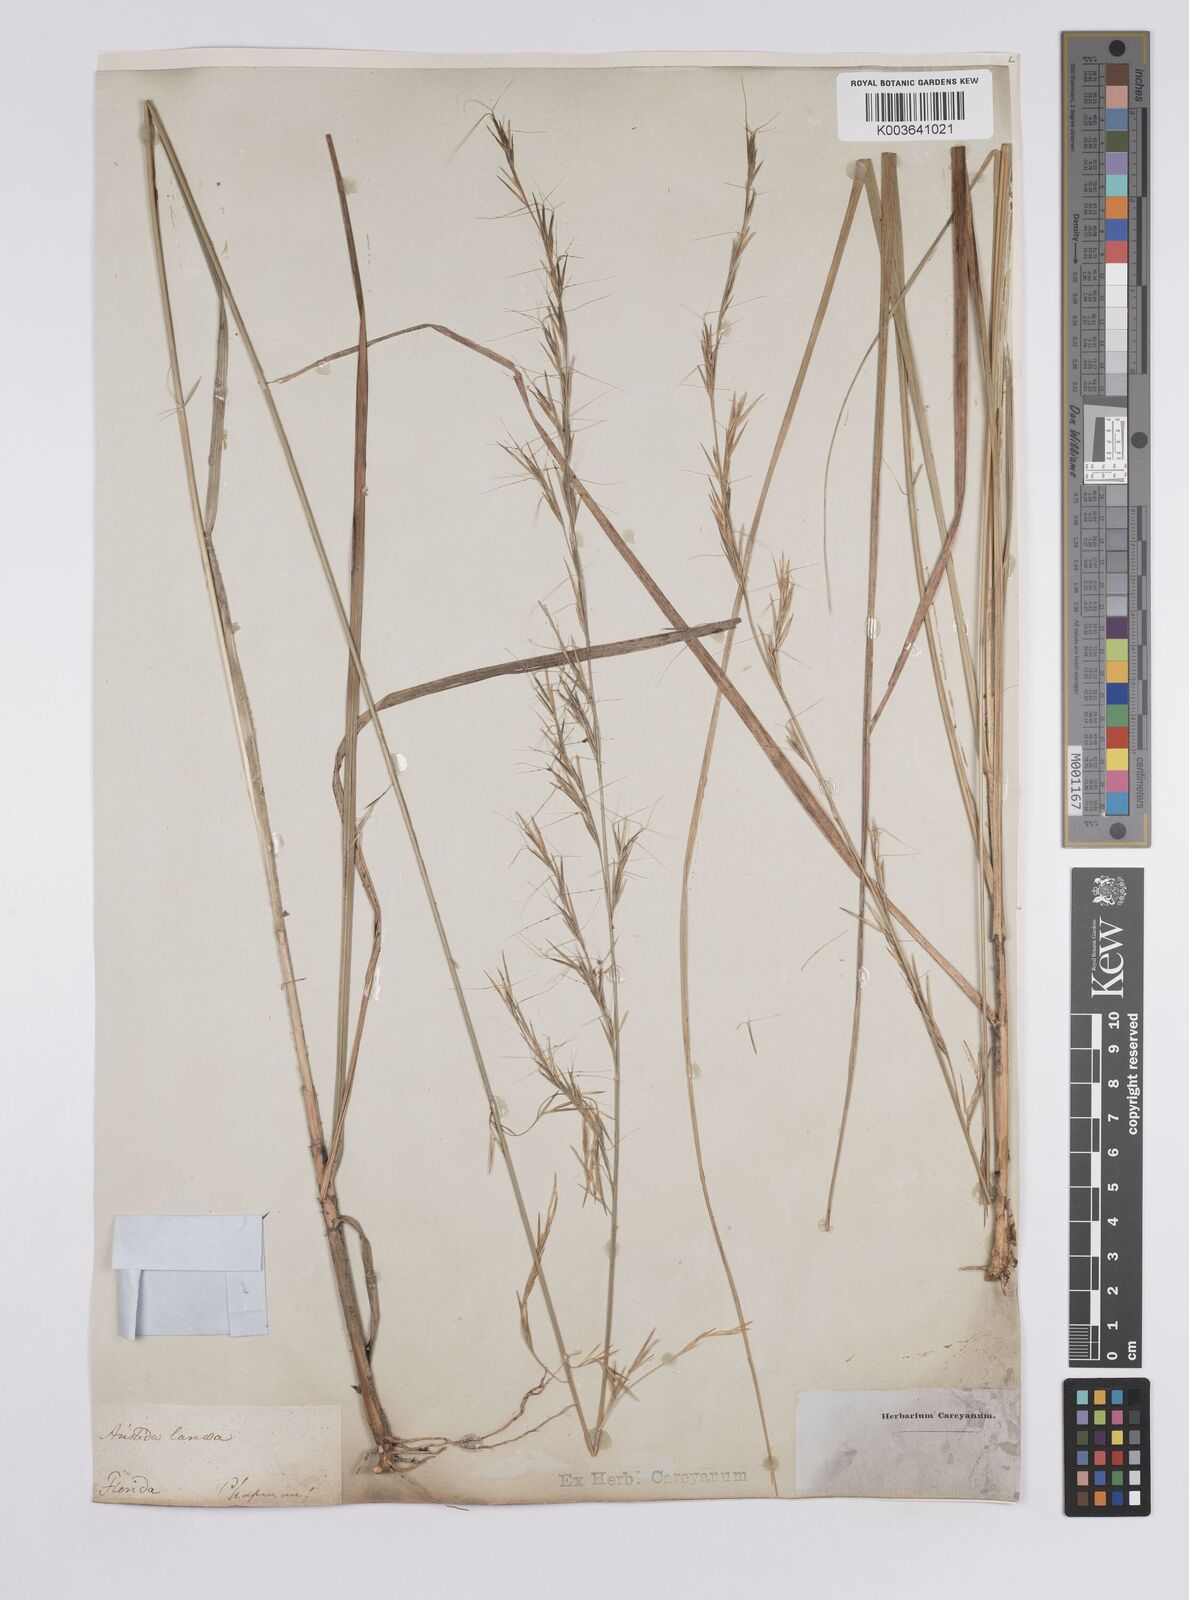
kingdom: Plantae
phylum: Tracheophyta
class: Liliopsida
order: Poales
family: Poaceae
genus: Aristida
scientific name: Aristida lanosa
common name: Woolly three-awn
